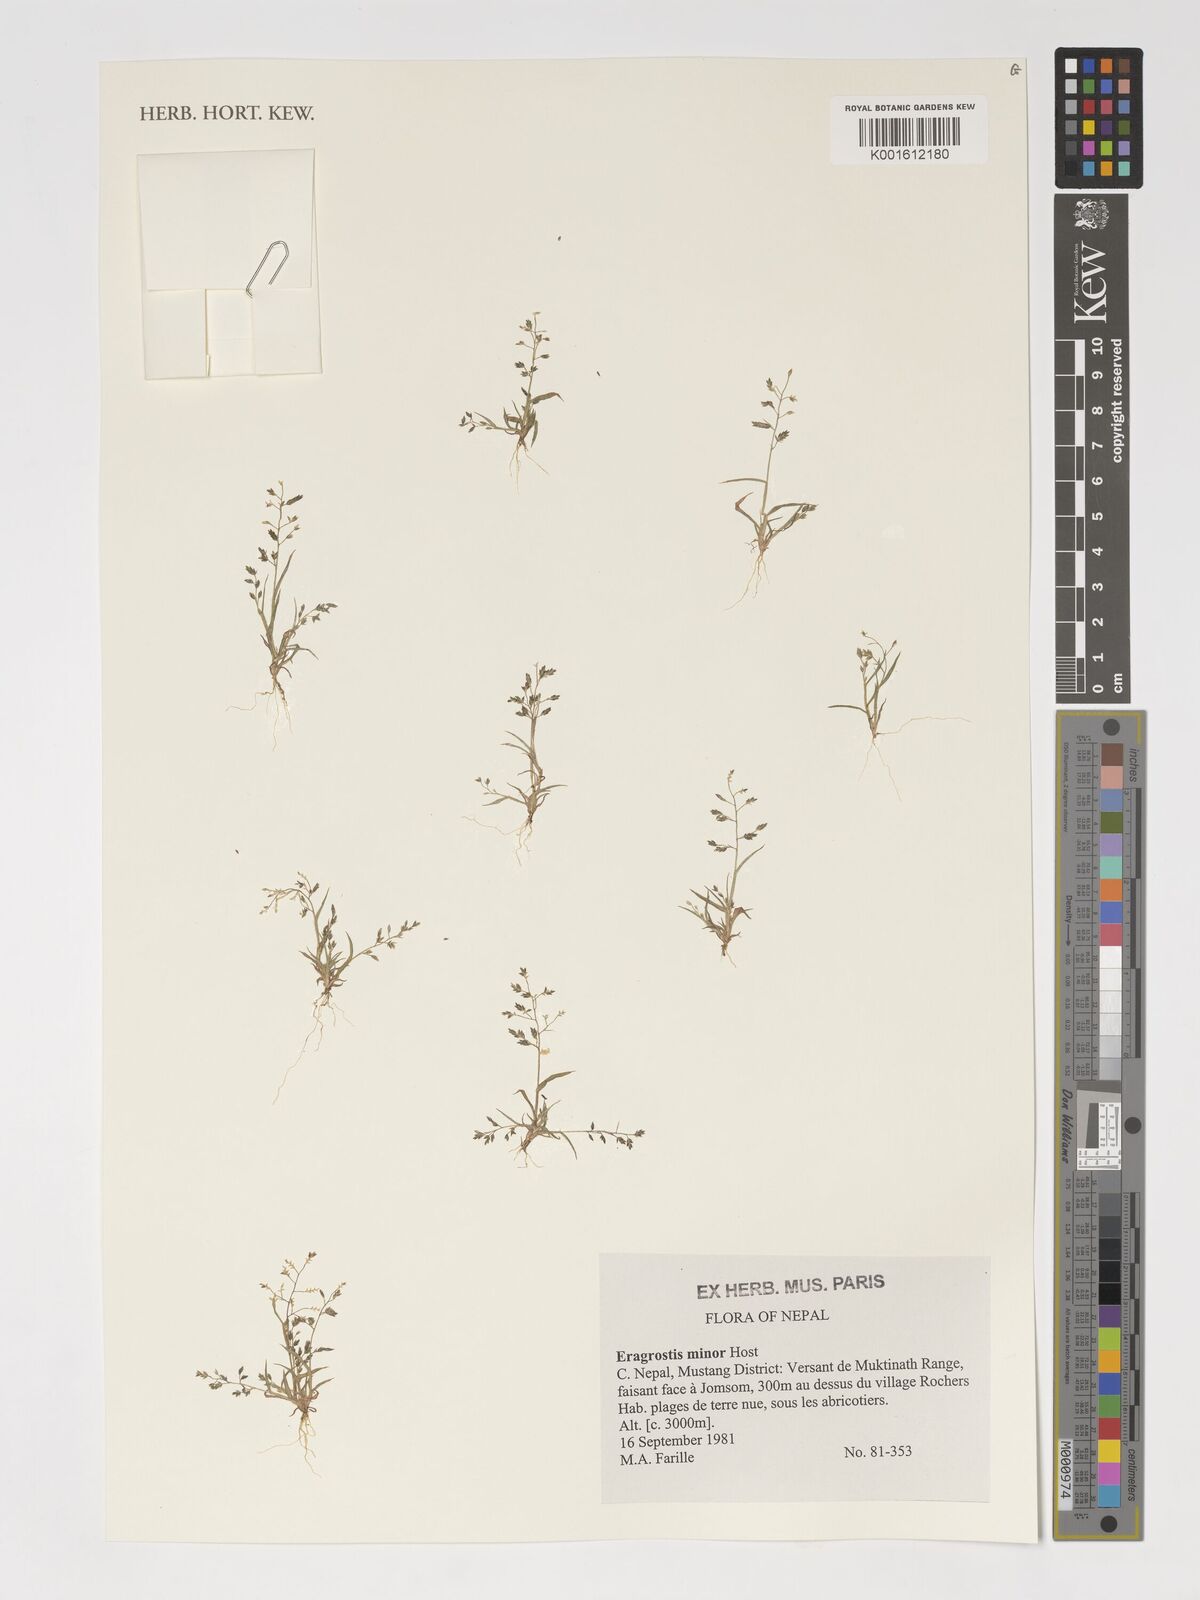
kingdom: Plantae
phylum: Tracheophyta
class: Liliopsida
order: Poales
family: Poaceae
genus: Eragrostis
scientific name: Eragrostis minor
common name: Small love-grass
